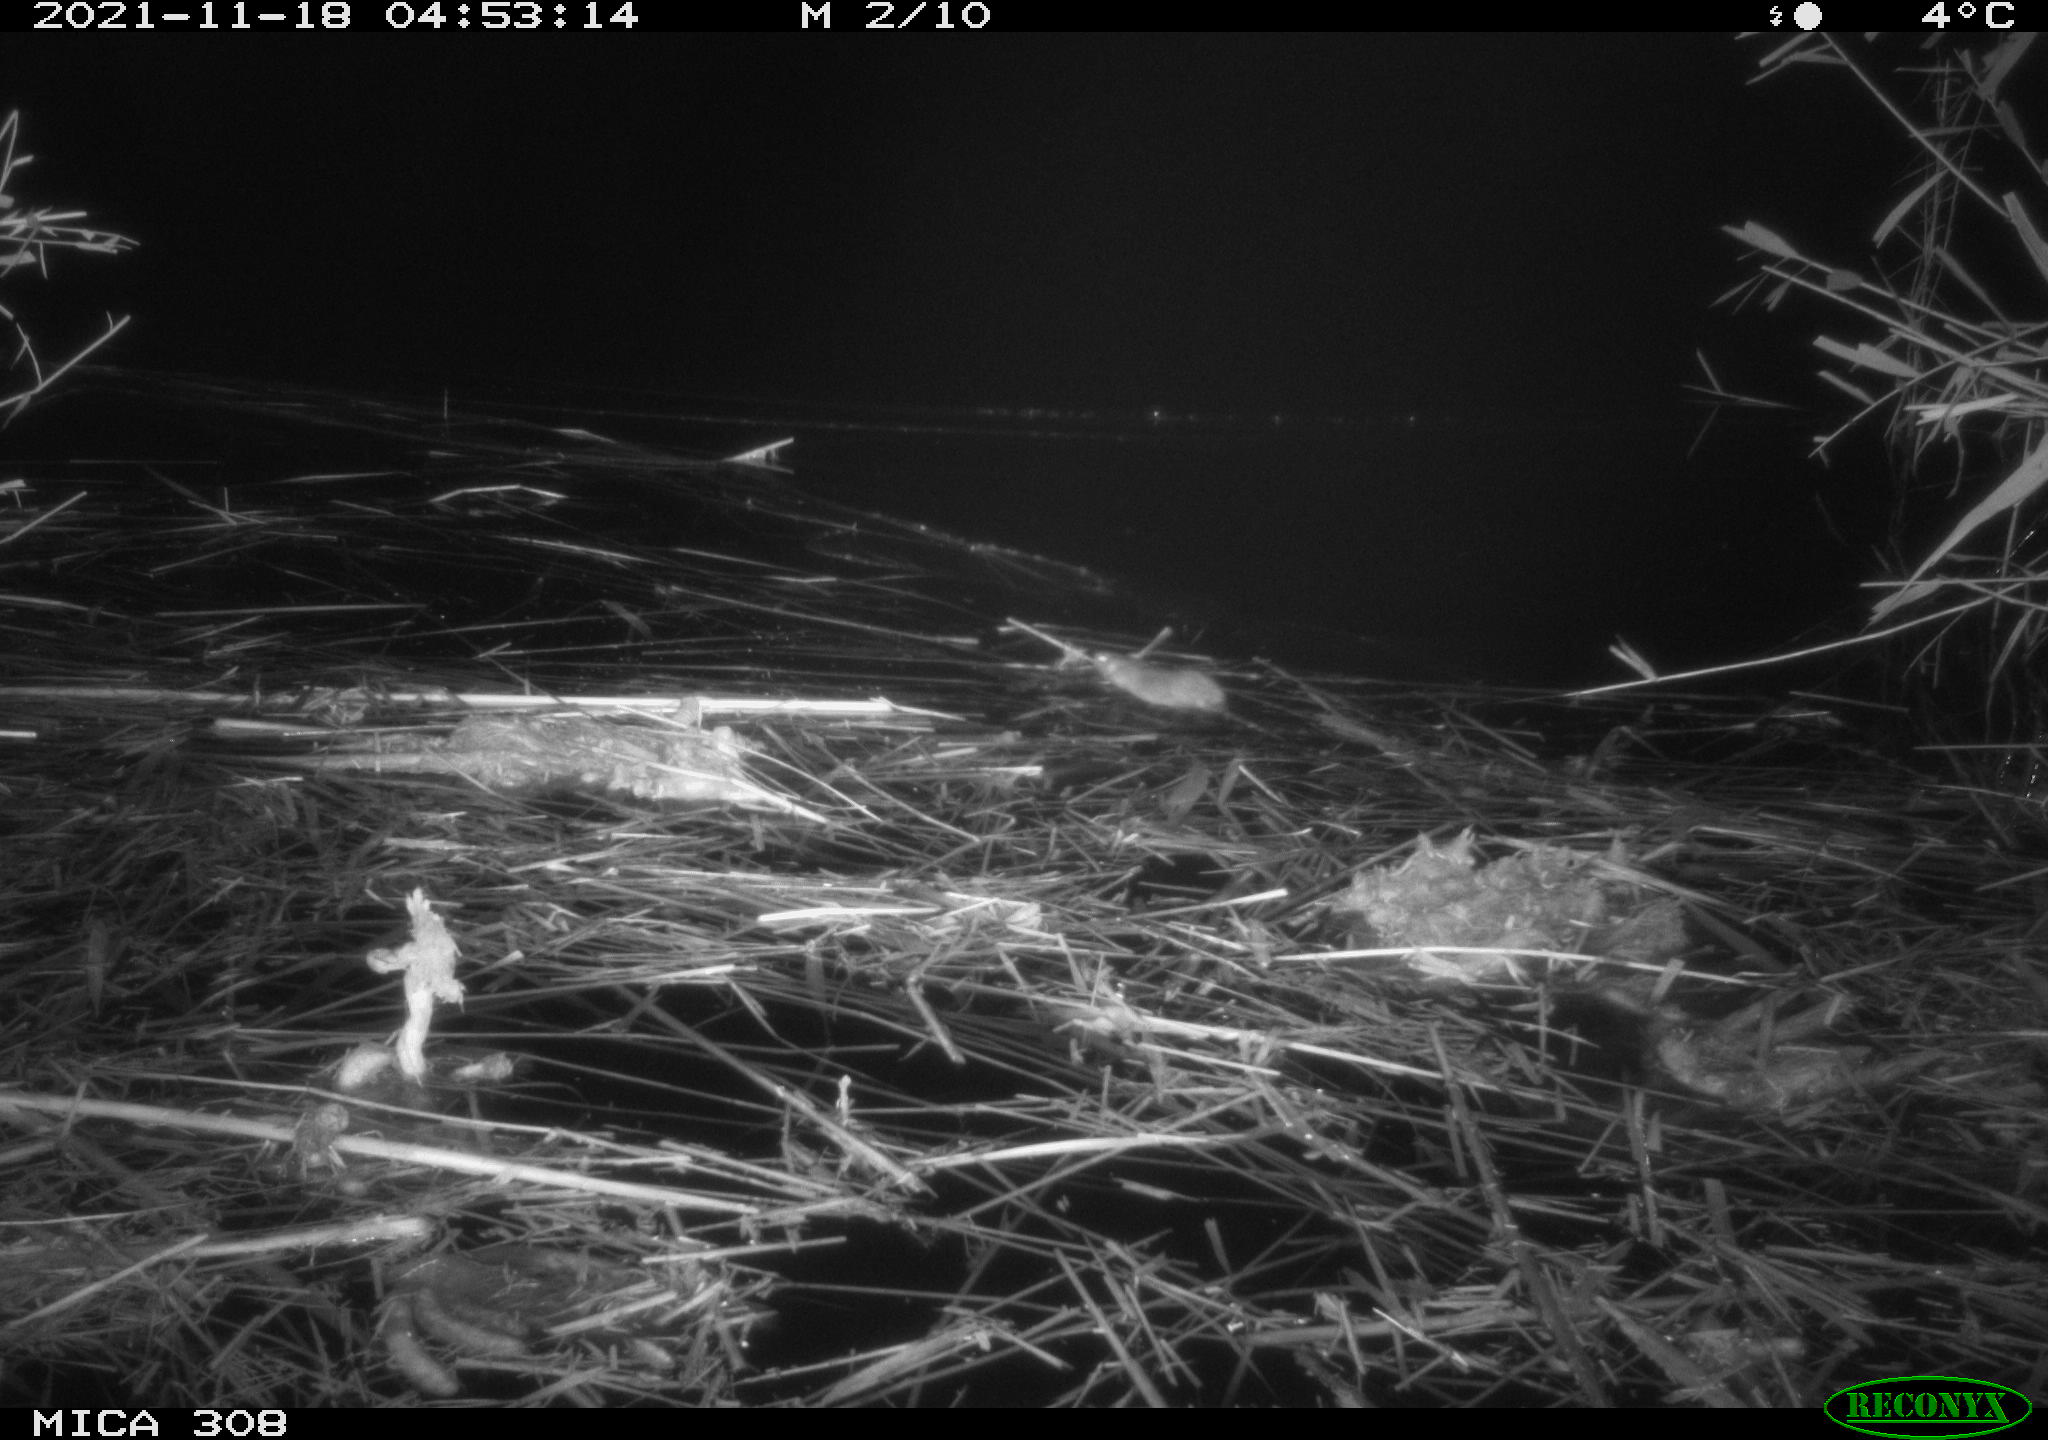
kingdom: Animalia
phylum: Chordata
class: Mammalia
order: Rodentia
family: Muridae
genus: Rattus
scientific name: Rattus norvegicus
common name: Brown rat
